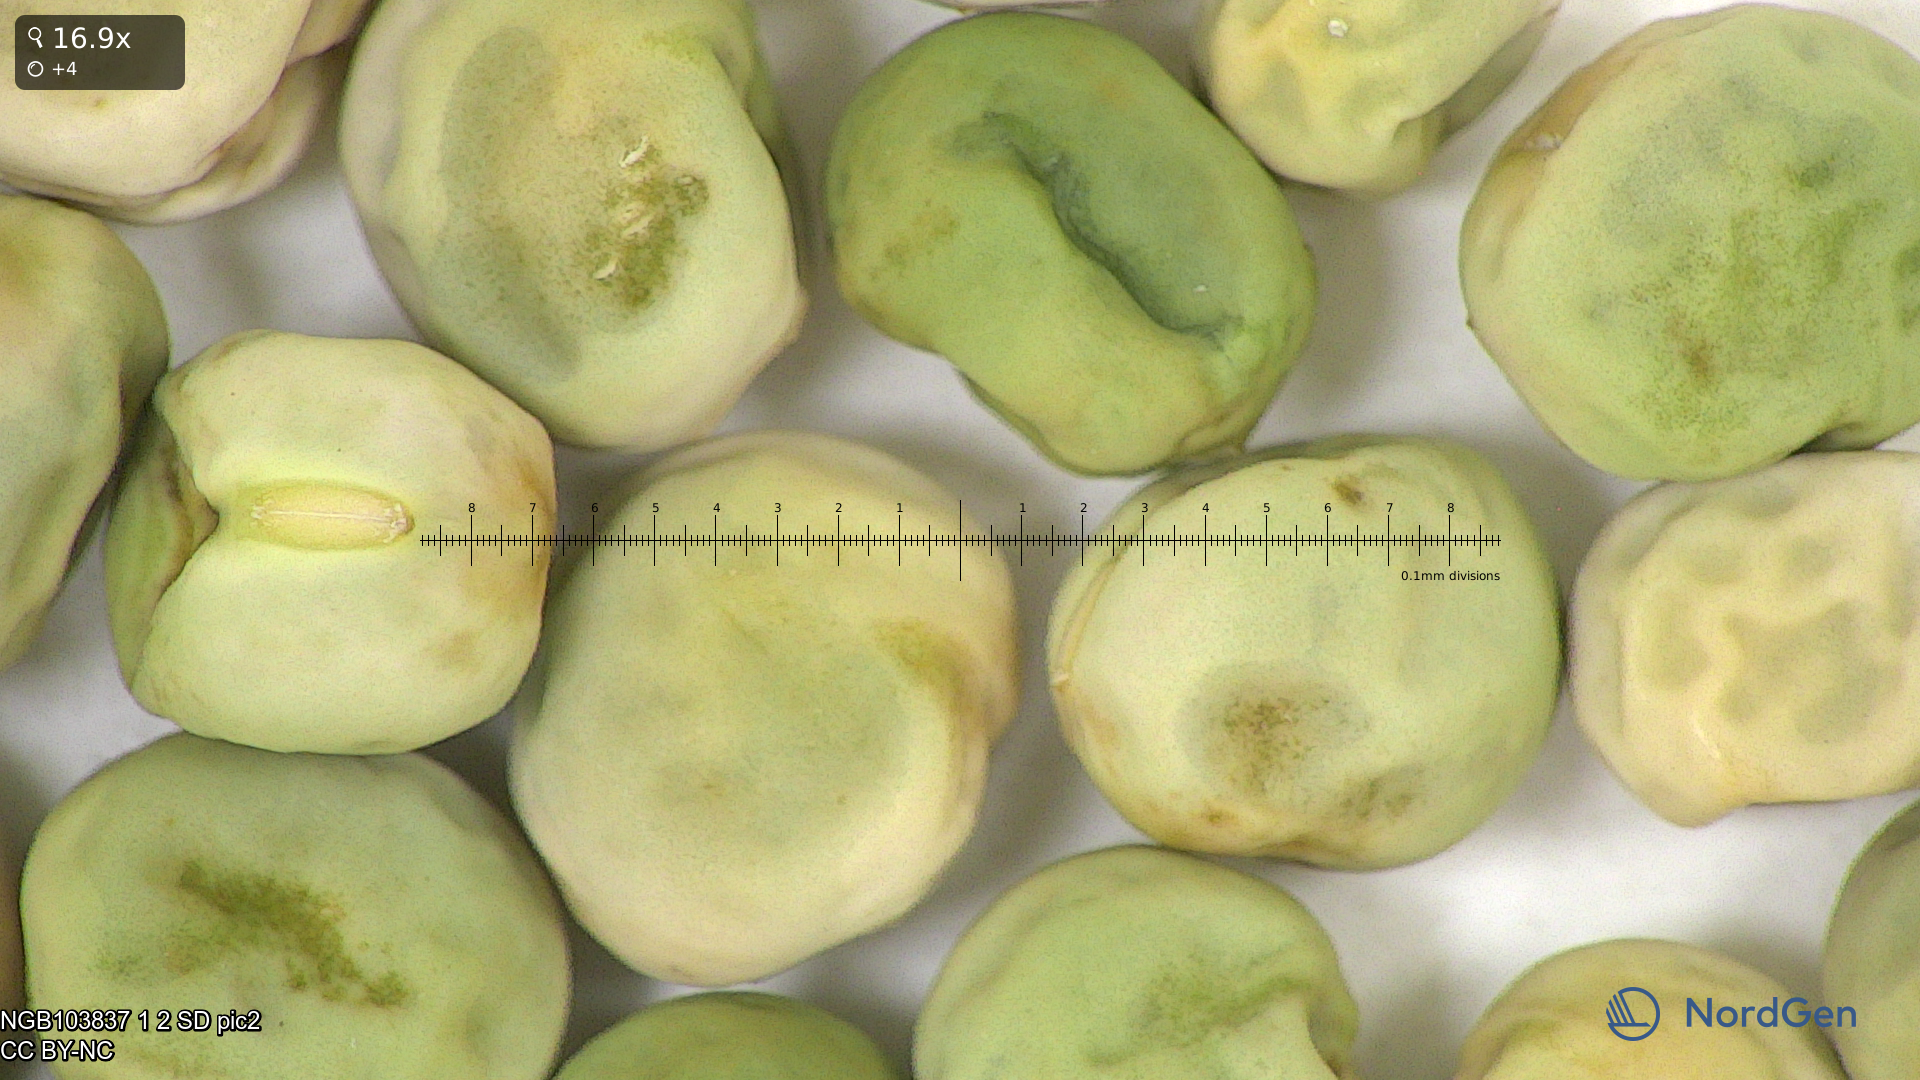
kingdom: Plantae
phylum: Tracheophyta
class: Magnoliopsida
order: Fabales
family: Fabaceae
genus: Lathyrus
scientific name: Lathyrus oleraceus
